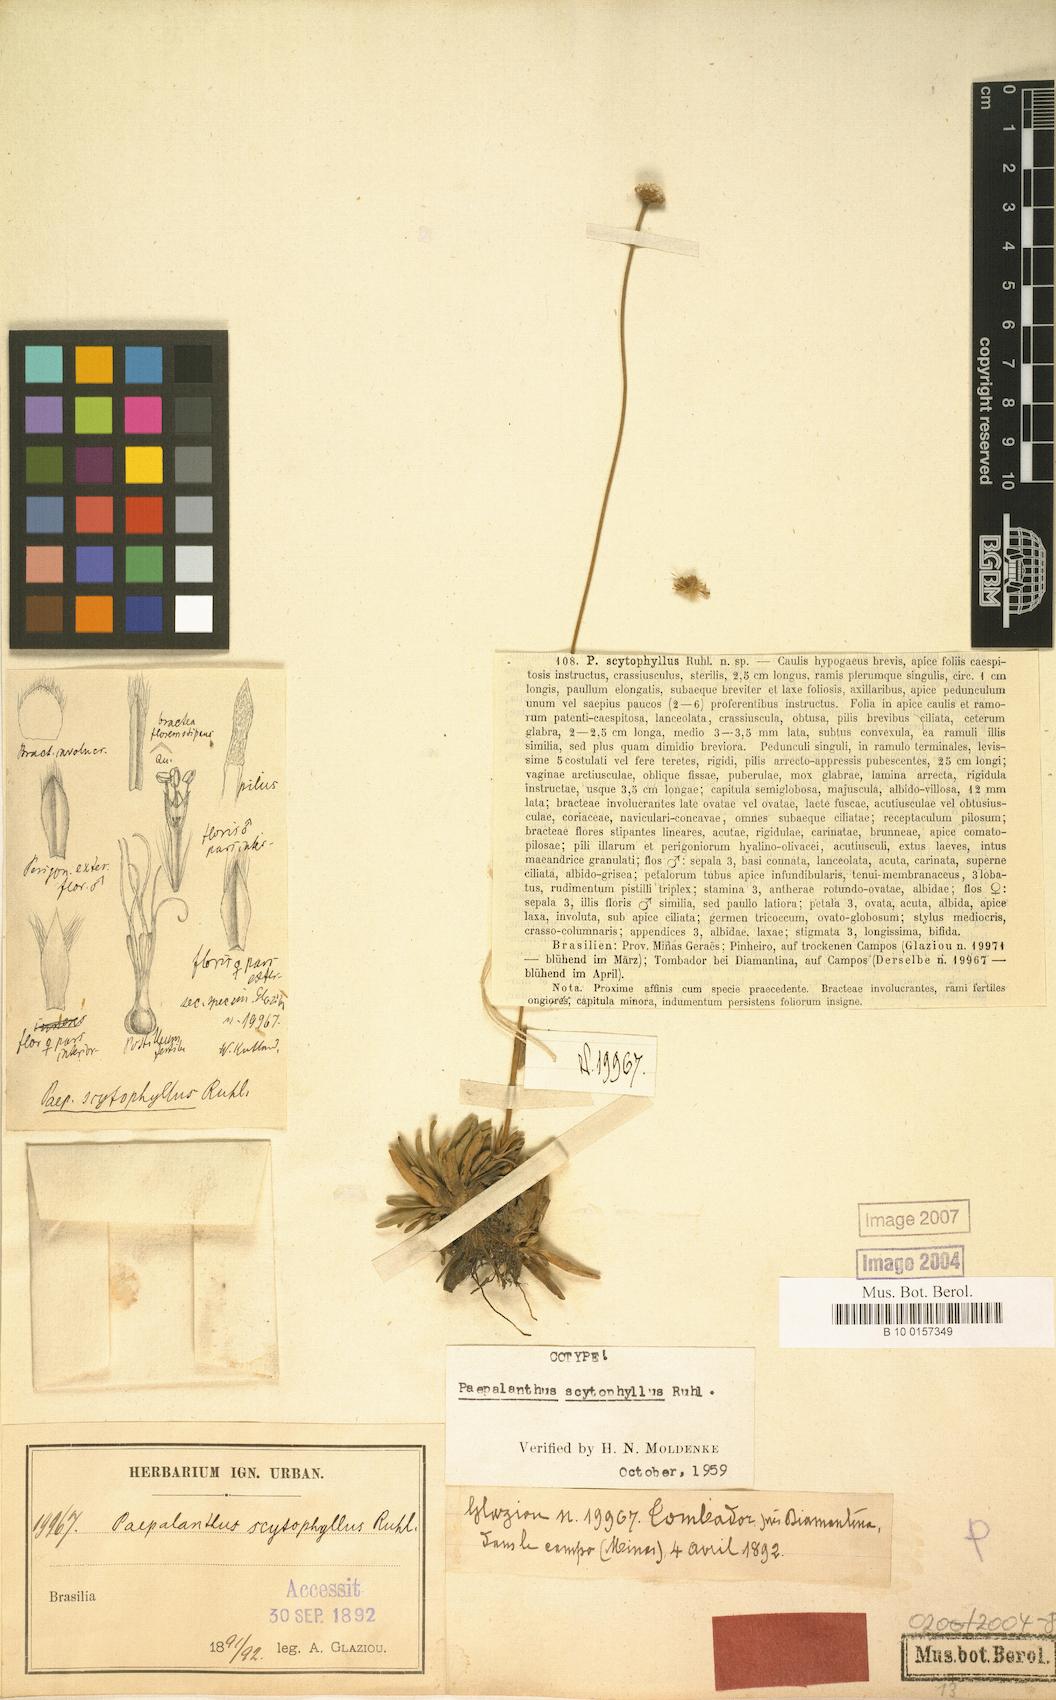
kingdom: Plantae
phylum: Tracheophyta
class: Liliopsida
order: Poales
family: Eriocaulaceae
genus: Paepalanthus
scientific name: Paepalanthus scytophyllus
